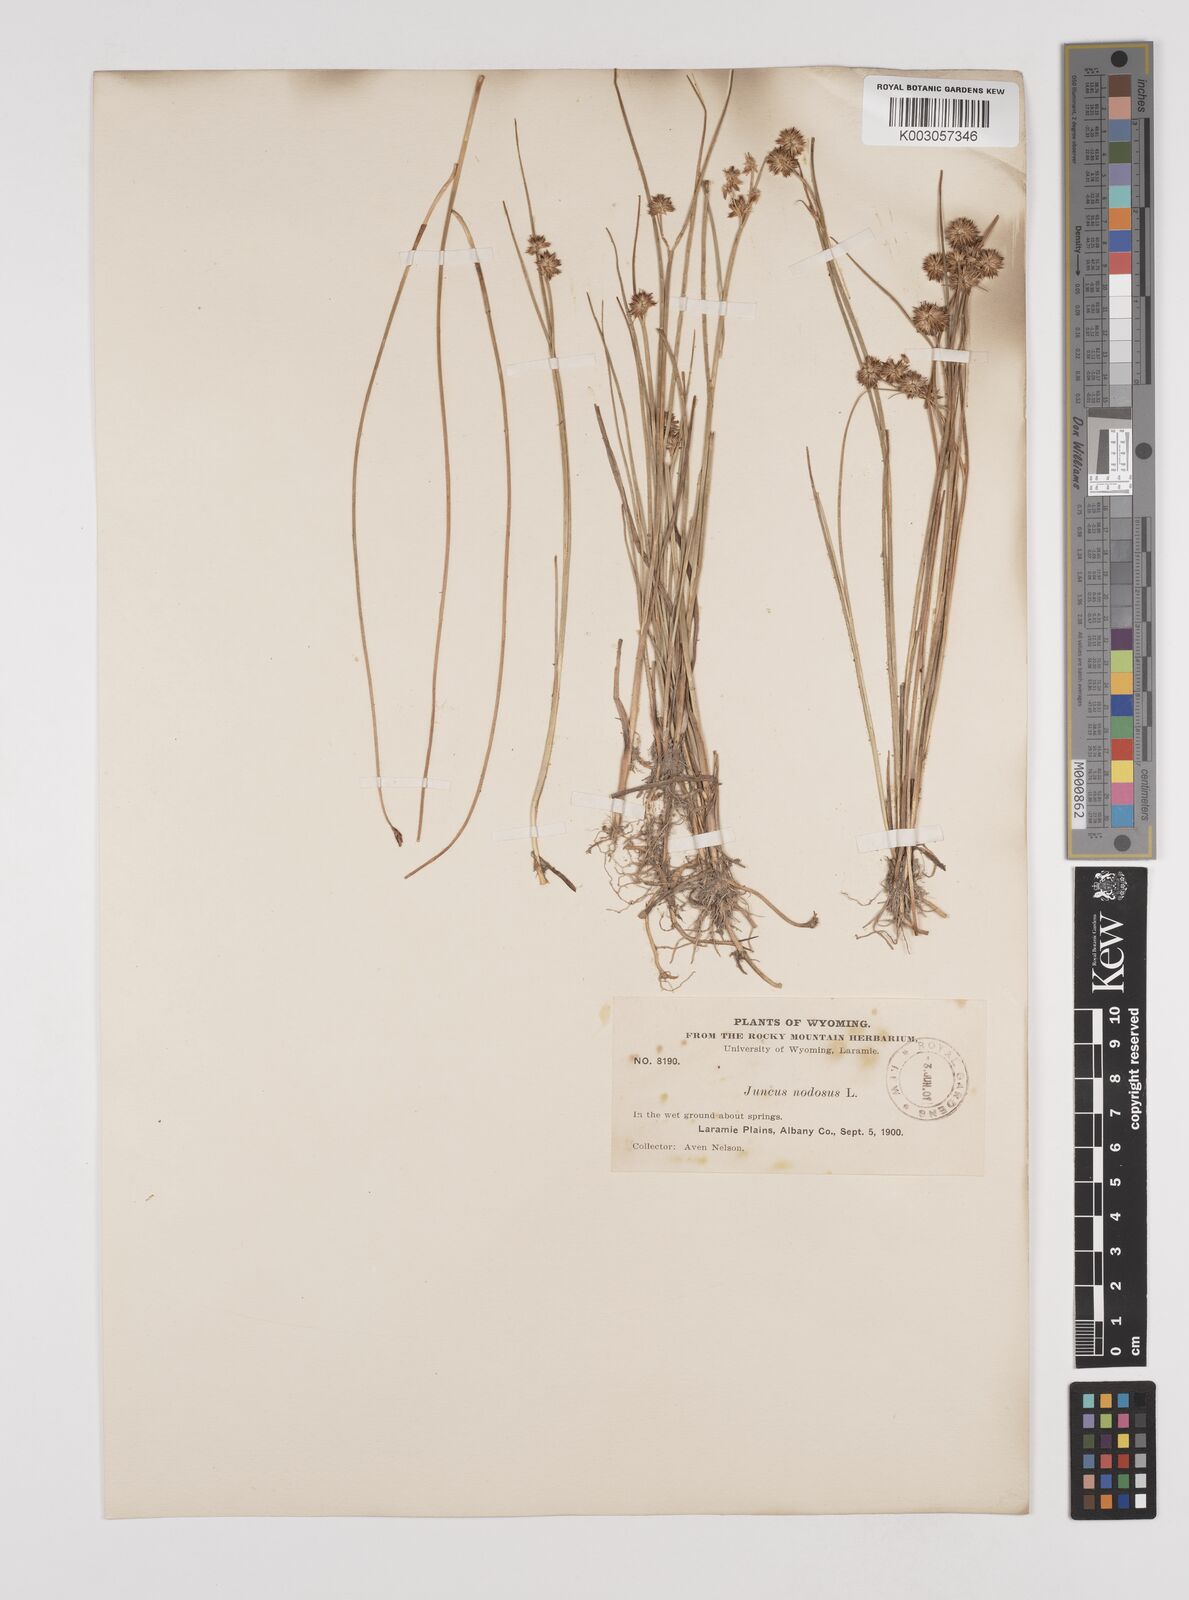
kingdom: Plantae
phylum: Tracheophyta
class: Liliopsida
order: Poales
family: Juncaceae
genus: Juncus
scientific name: Juncus nodosus
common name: Knotted rush
